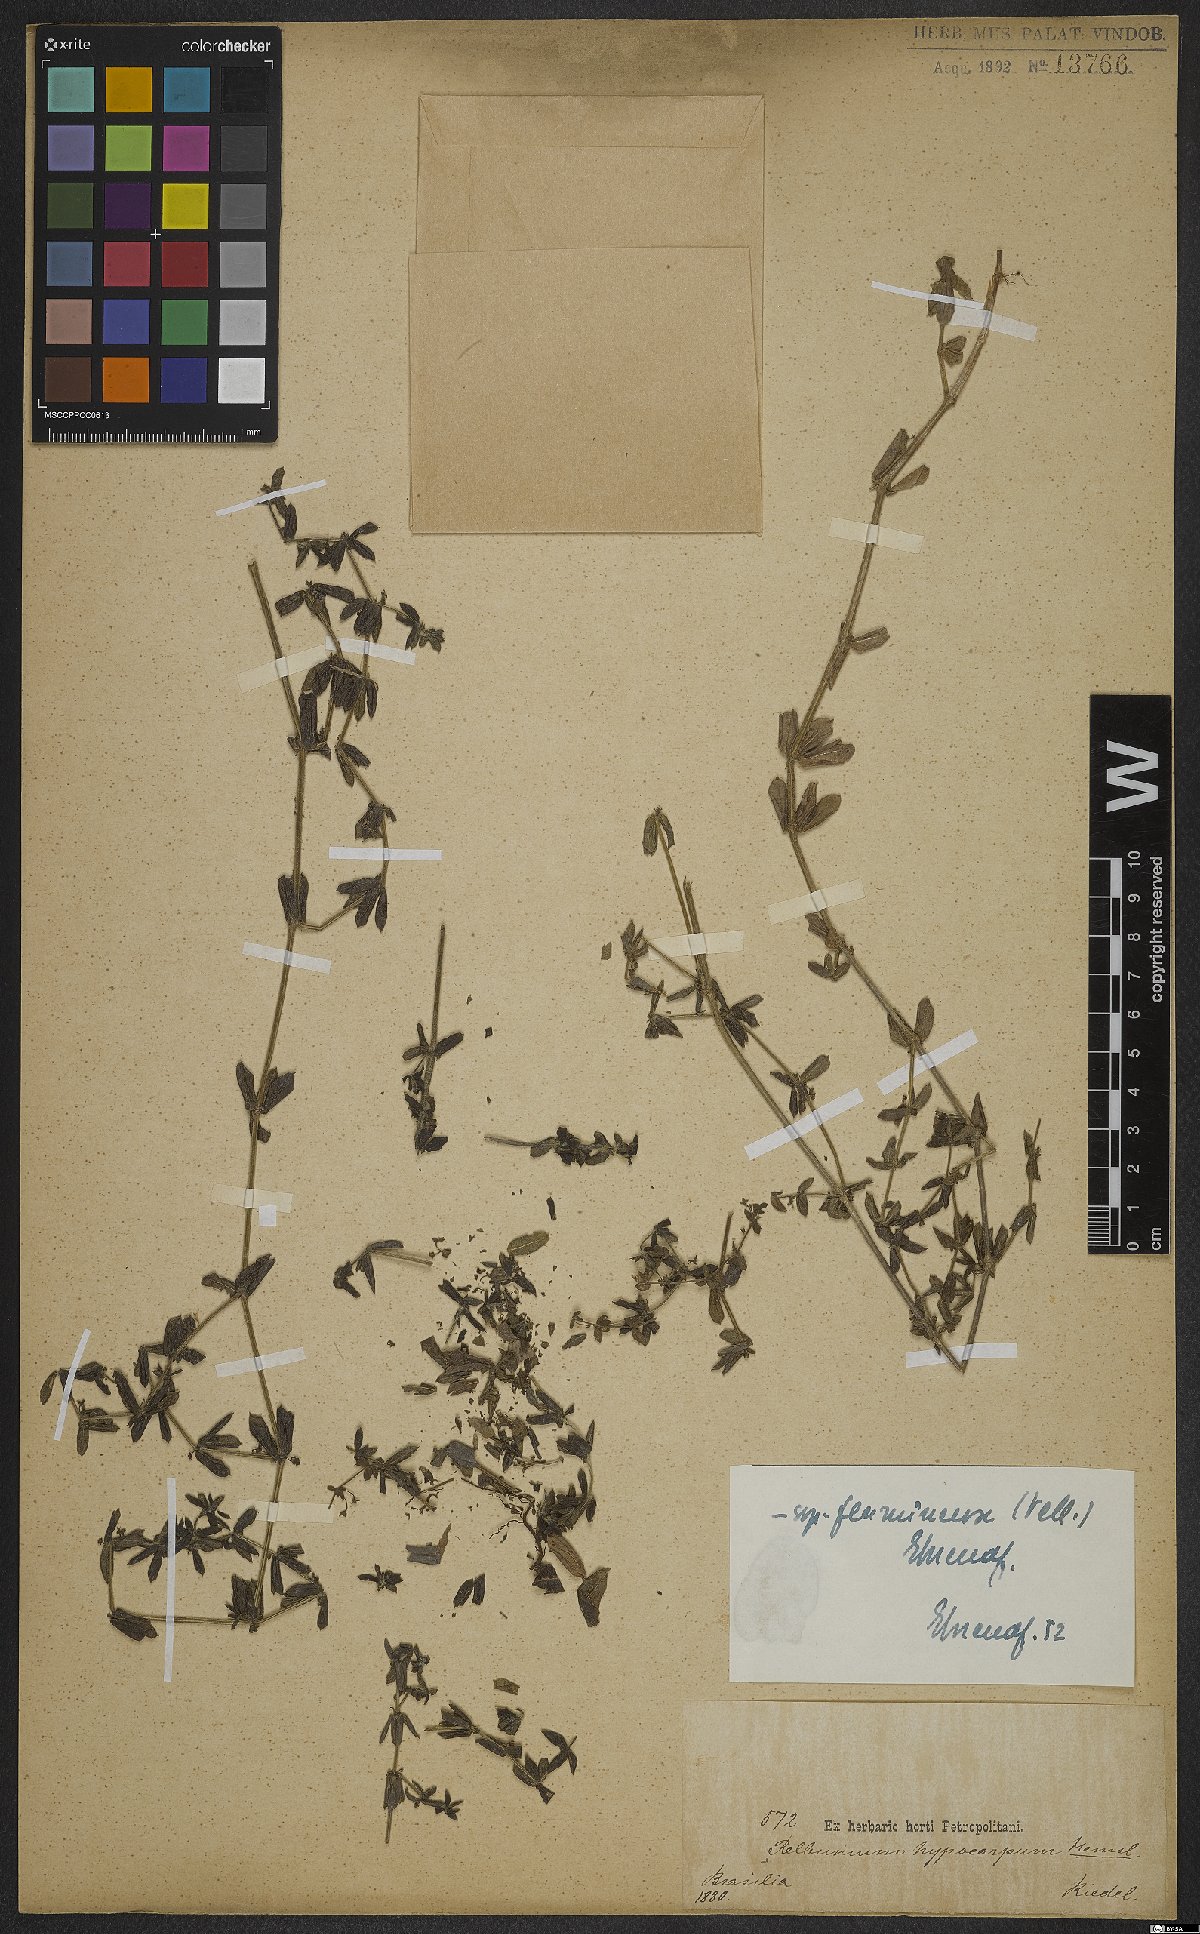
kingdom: Plantae
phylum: Tracheophyta
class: Magnoliopsida
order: Gentianales
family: Rubiaceae
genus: Galium
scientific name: Galium hypocarpium
